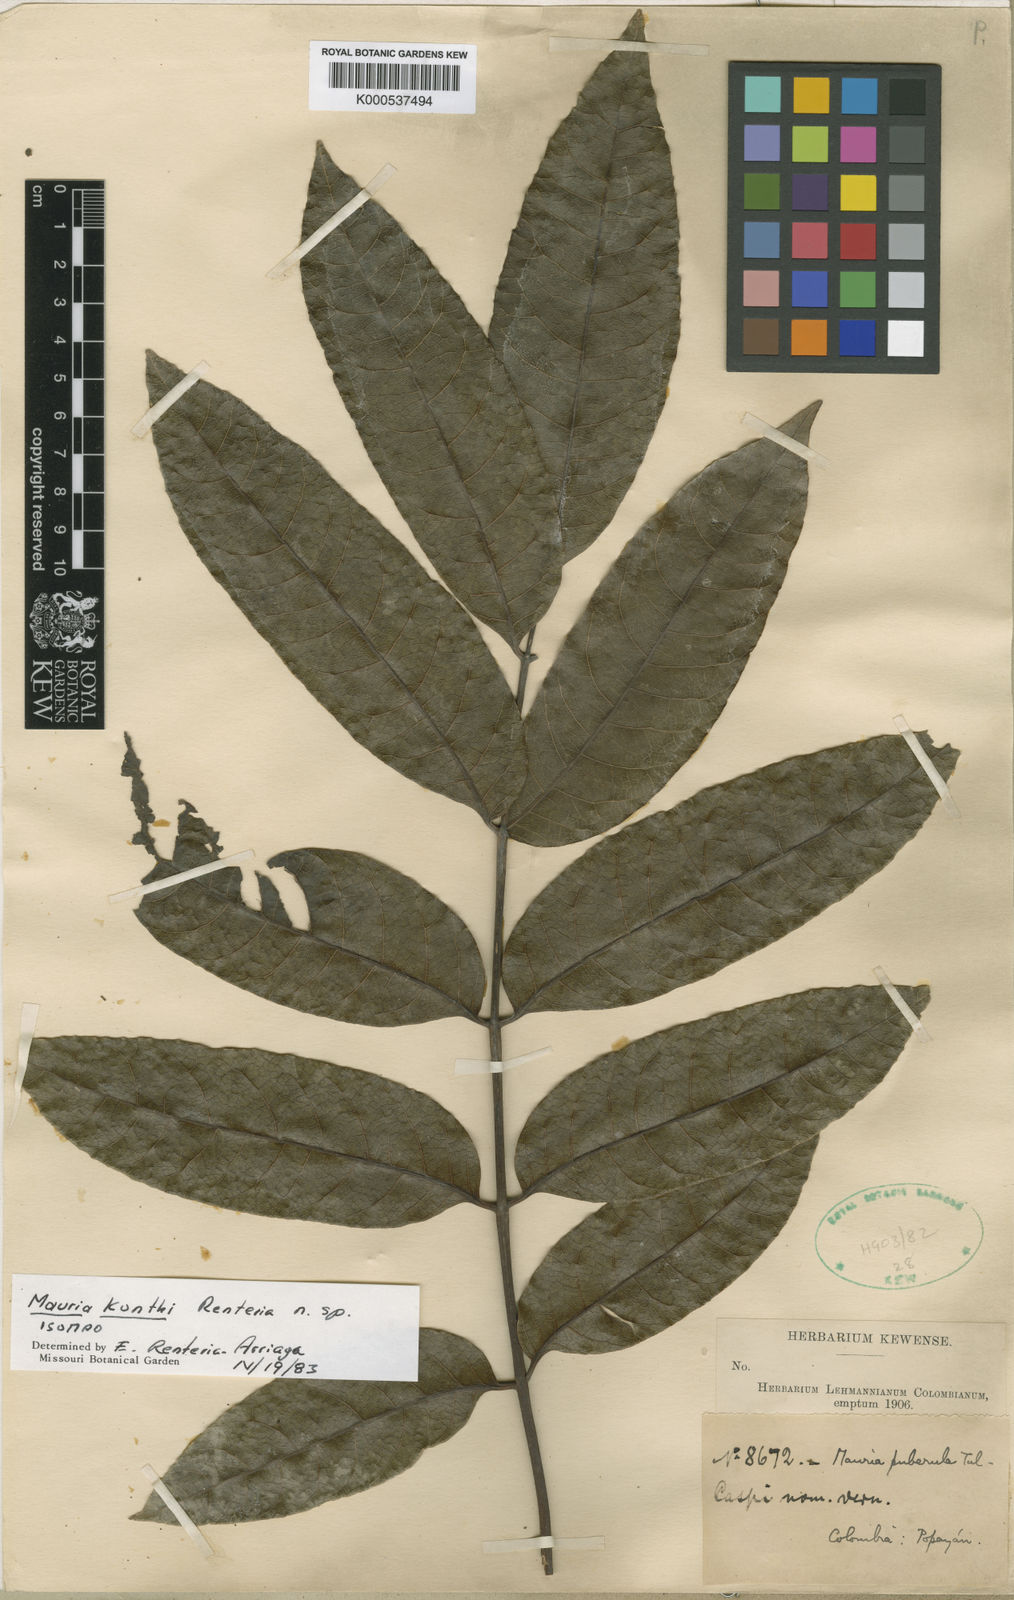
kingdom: Plantae
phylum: Tracheophyta
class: Magnoliopsida
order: Sapindales
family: Anacardiaceae
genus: Mauria
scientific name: Mauria kunthii
